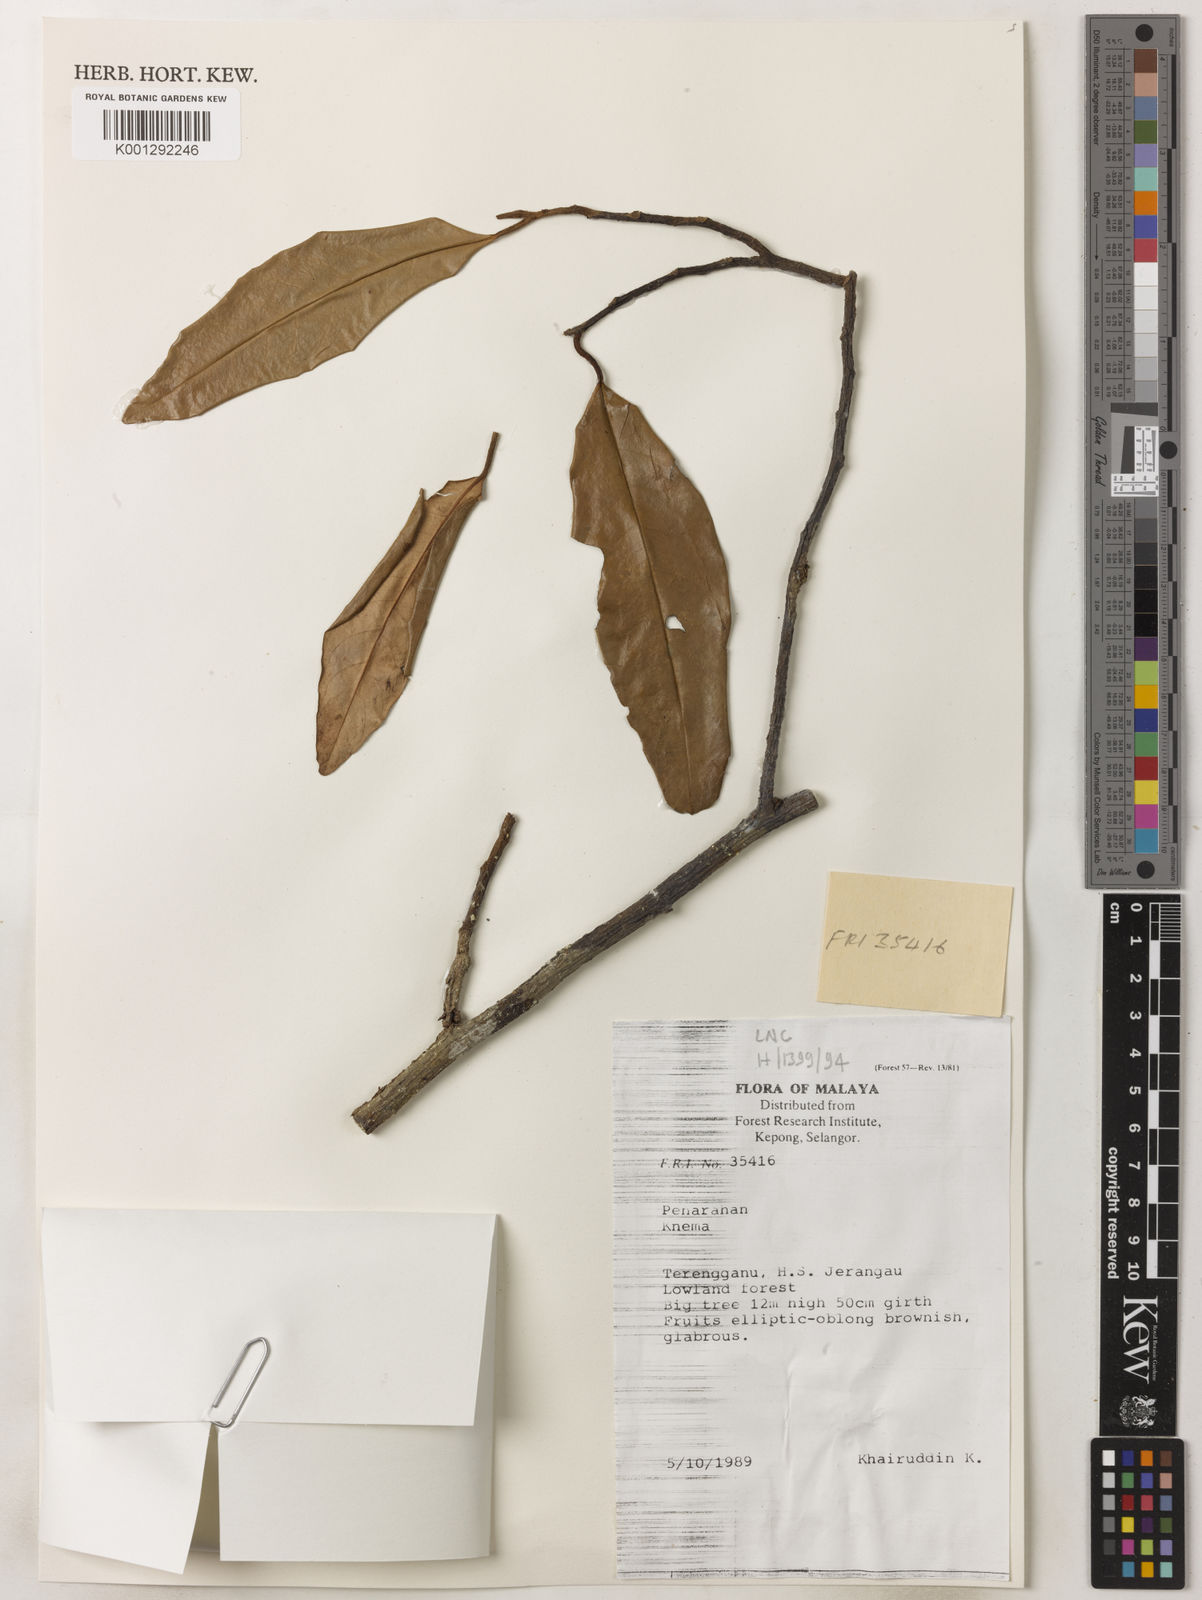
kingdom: Plantae
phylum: Tracheophyta
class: Magnoliopsida
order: Magnoliales
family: Myristicaceae
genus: Knema
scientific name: Knema
